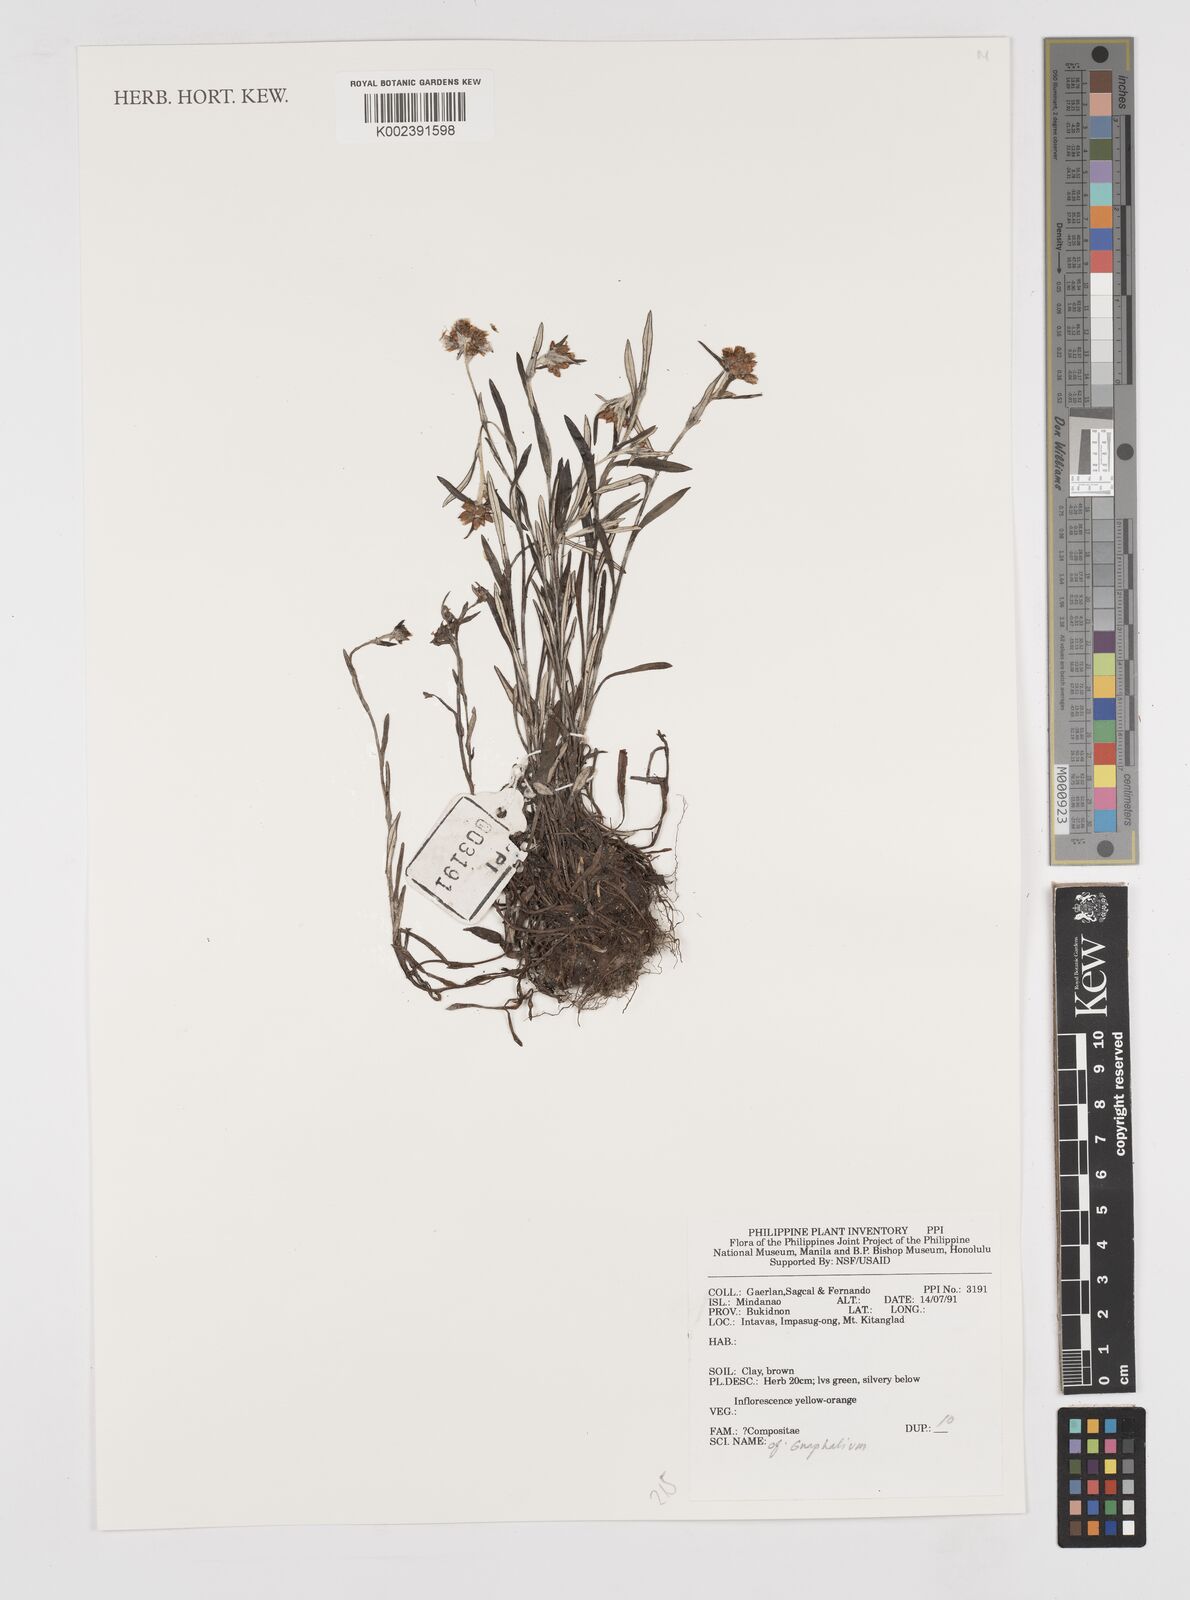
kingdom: Plantae
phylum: Tracheophyta
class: Magnoliopsida
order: Asterales
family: Asteraceae
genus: Gnaphalium
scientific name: Gnaphalium
